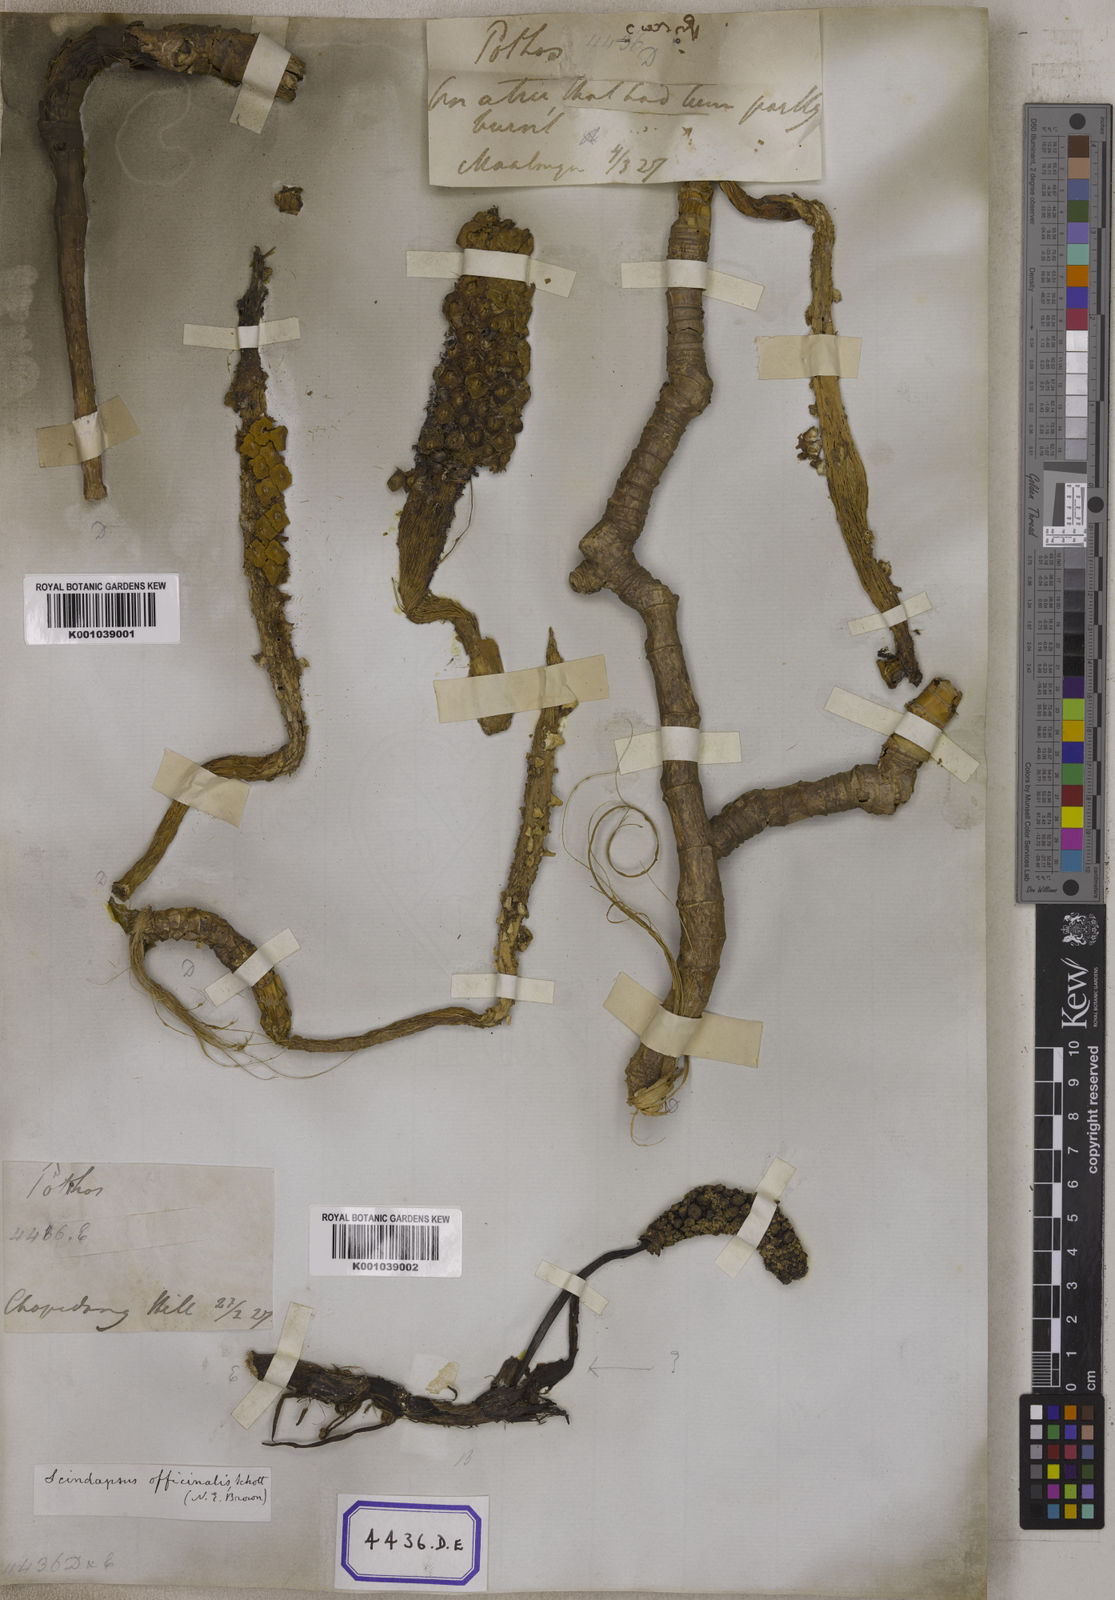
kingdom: Plantae
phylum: Tracheophyta
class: Liliopsida
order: Alismatales
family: Araceae
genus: Scindapsus
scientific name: Scindapsus officinalis
